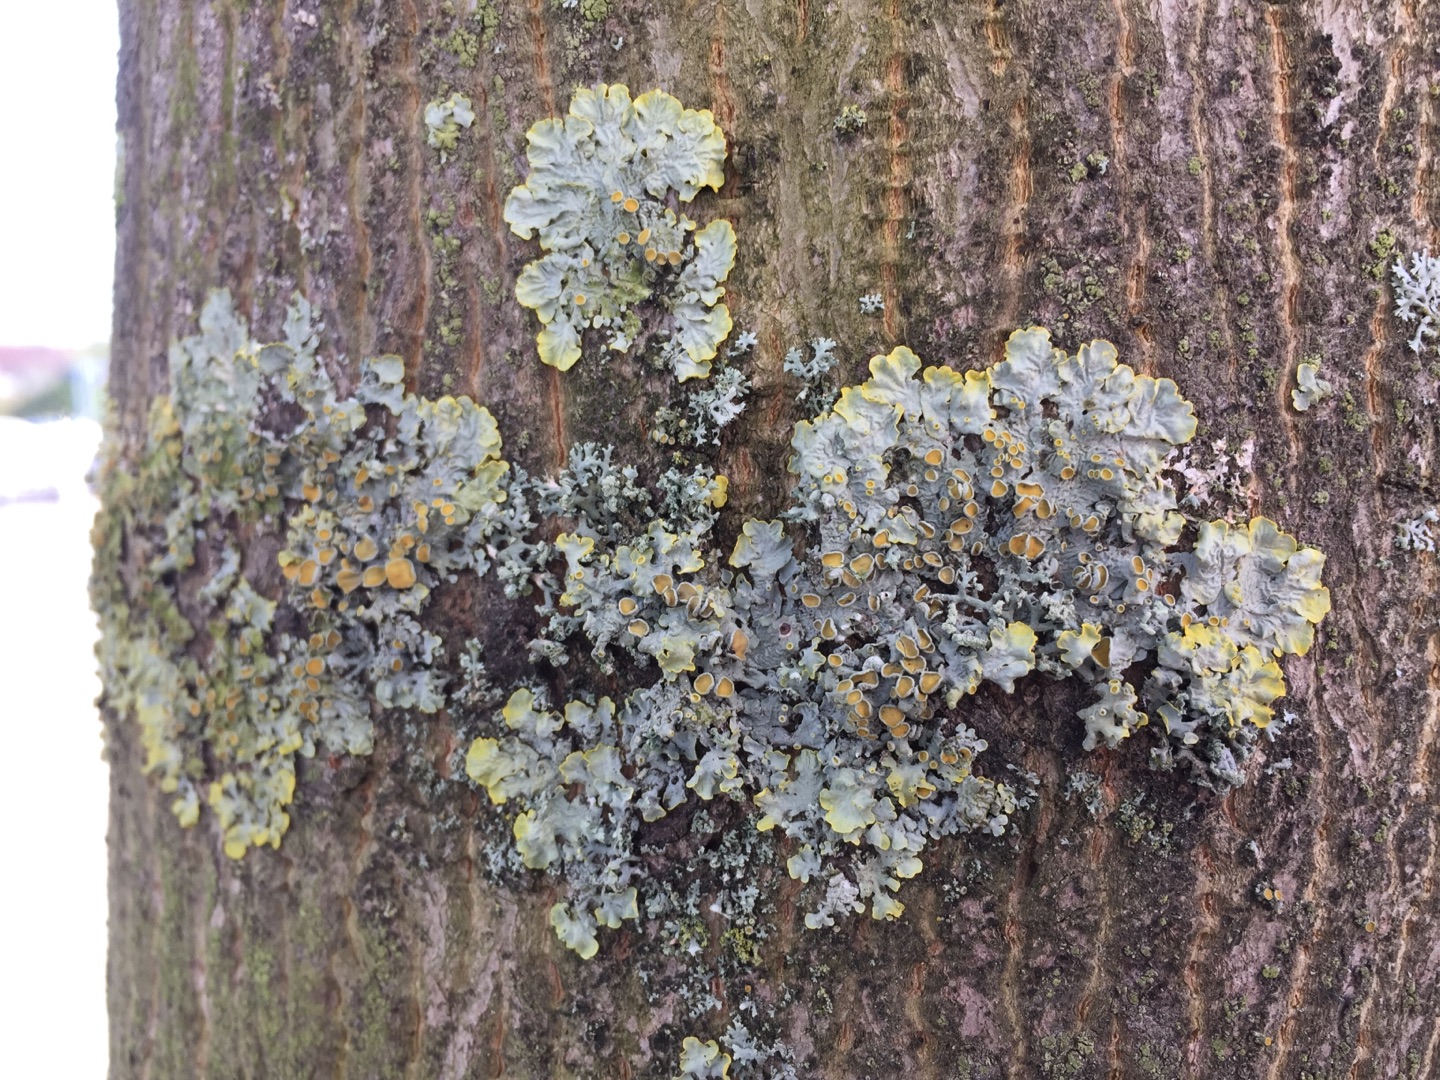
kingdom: Fungi
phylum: Ascomycota
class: Lecanoromycetes
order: Teloschistales
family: Teloschistaceae
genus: Xanthoria
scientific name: Xanthoria parietina
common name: Almindelig væggelav
